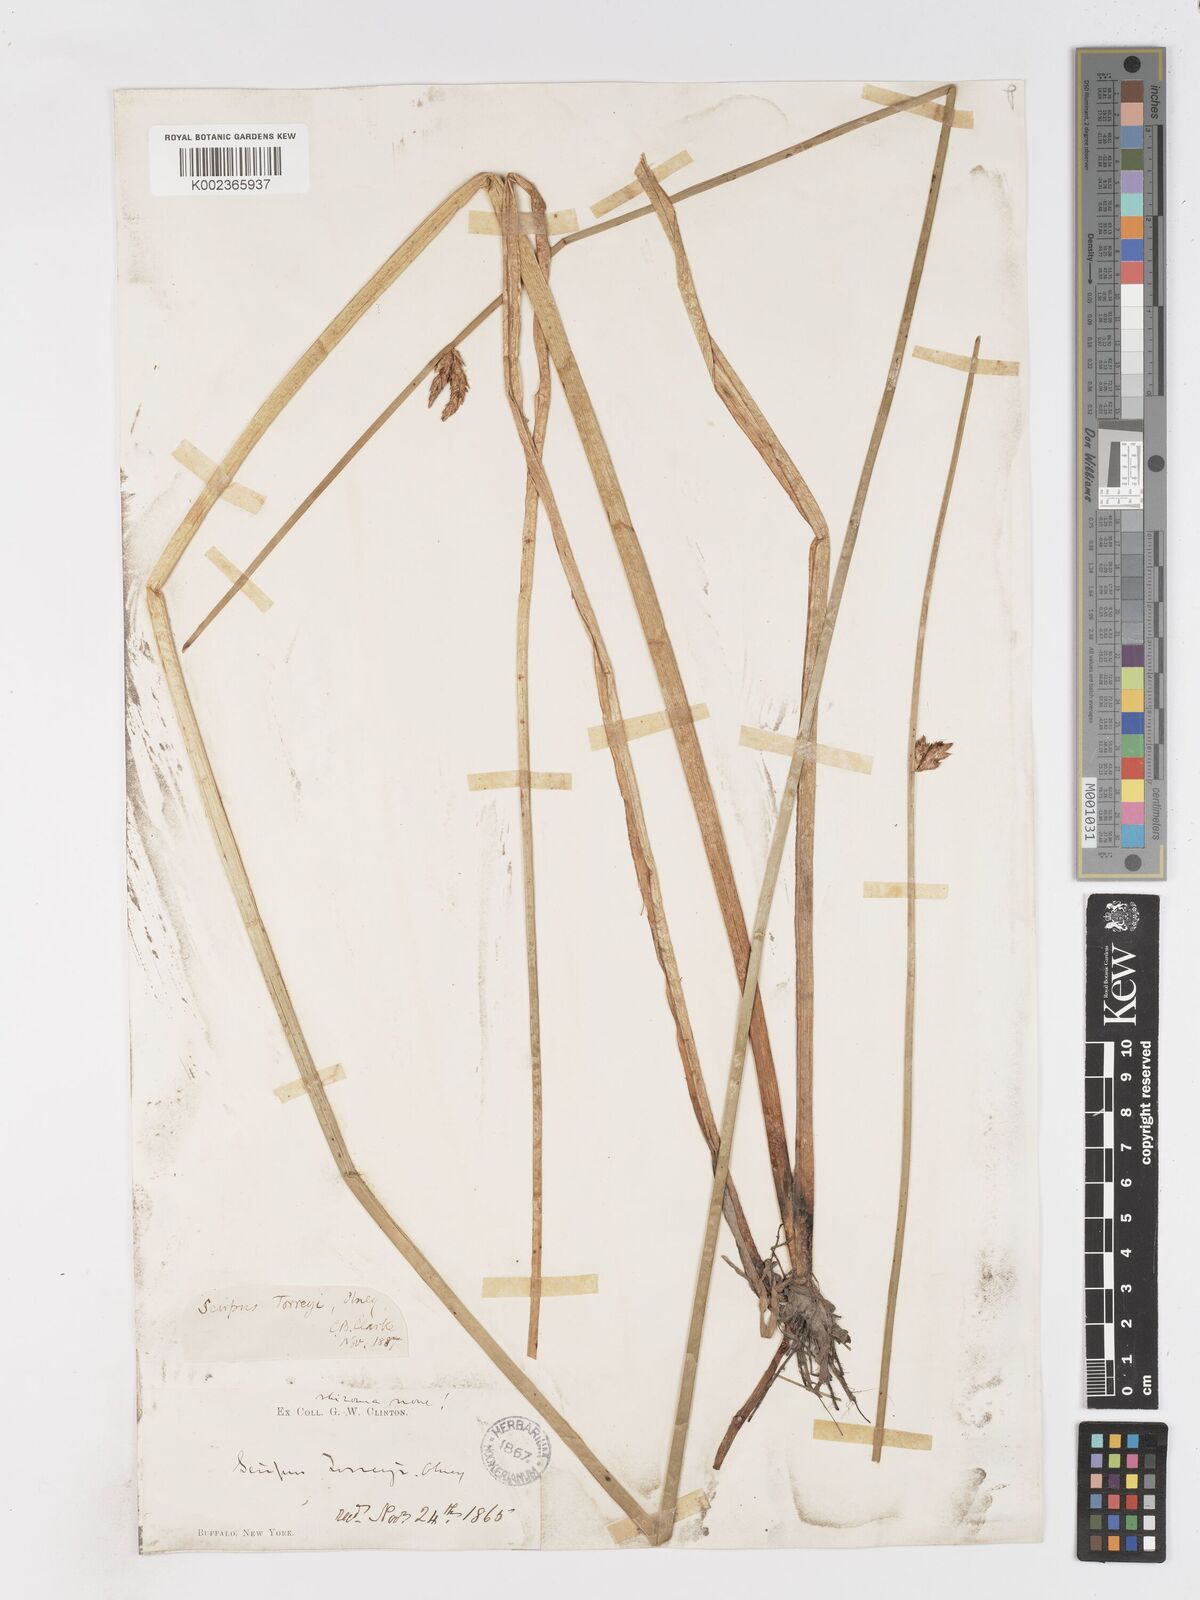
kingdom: Plantae
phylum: Tracheophyta
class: Liliopsida
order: Poales
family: Cyperaceae
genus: Schoenoplectus
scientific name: Schoenoplectus torreyi
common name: Torrey's bulrush
